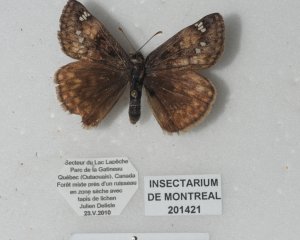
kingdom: Animalia
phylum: Arthropoda
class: Insecta
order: Lepidoptera
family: Hesperiidae
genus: Gesta
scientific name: Gesta
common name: Juvenal's Duskywing
